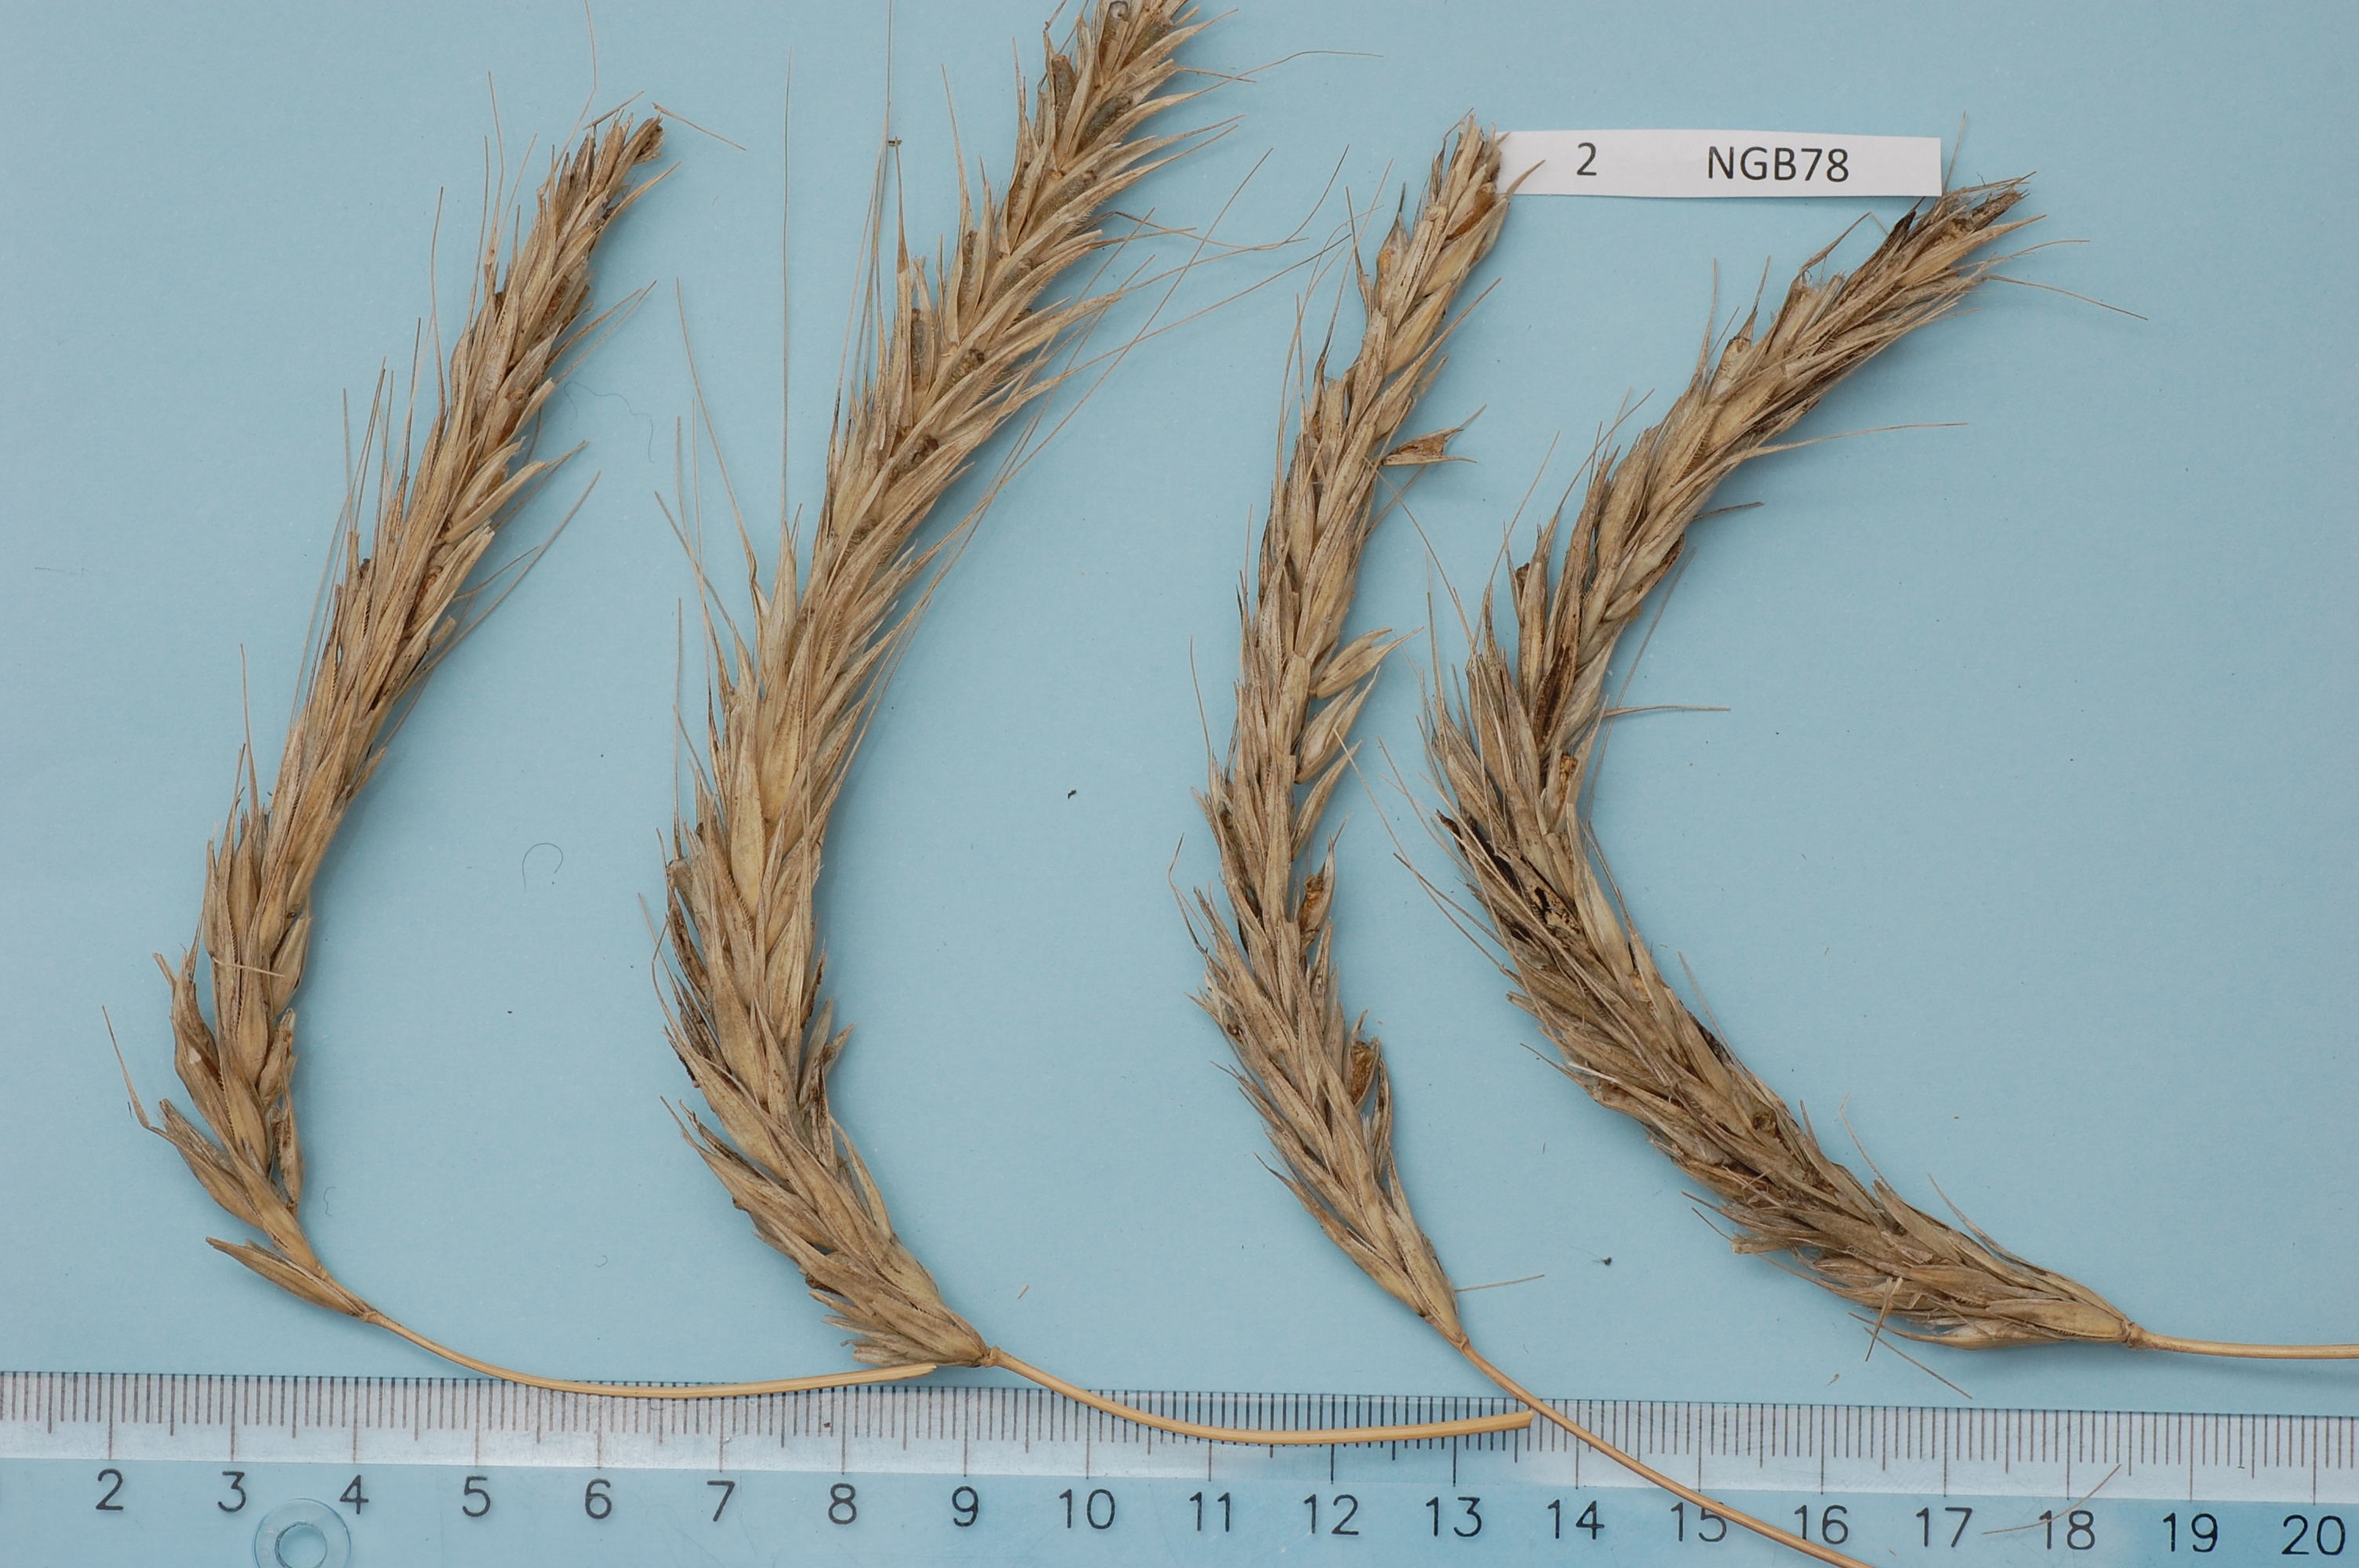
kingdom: Plantae
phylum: Tracheophyta
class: Liliopsida
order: Poales
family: Poaceae
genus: Secale
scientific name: Secale cereale
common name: Rye
